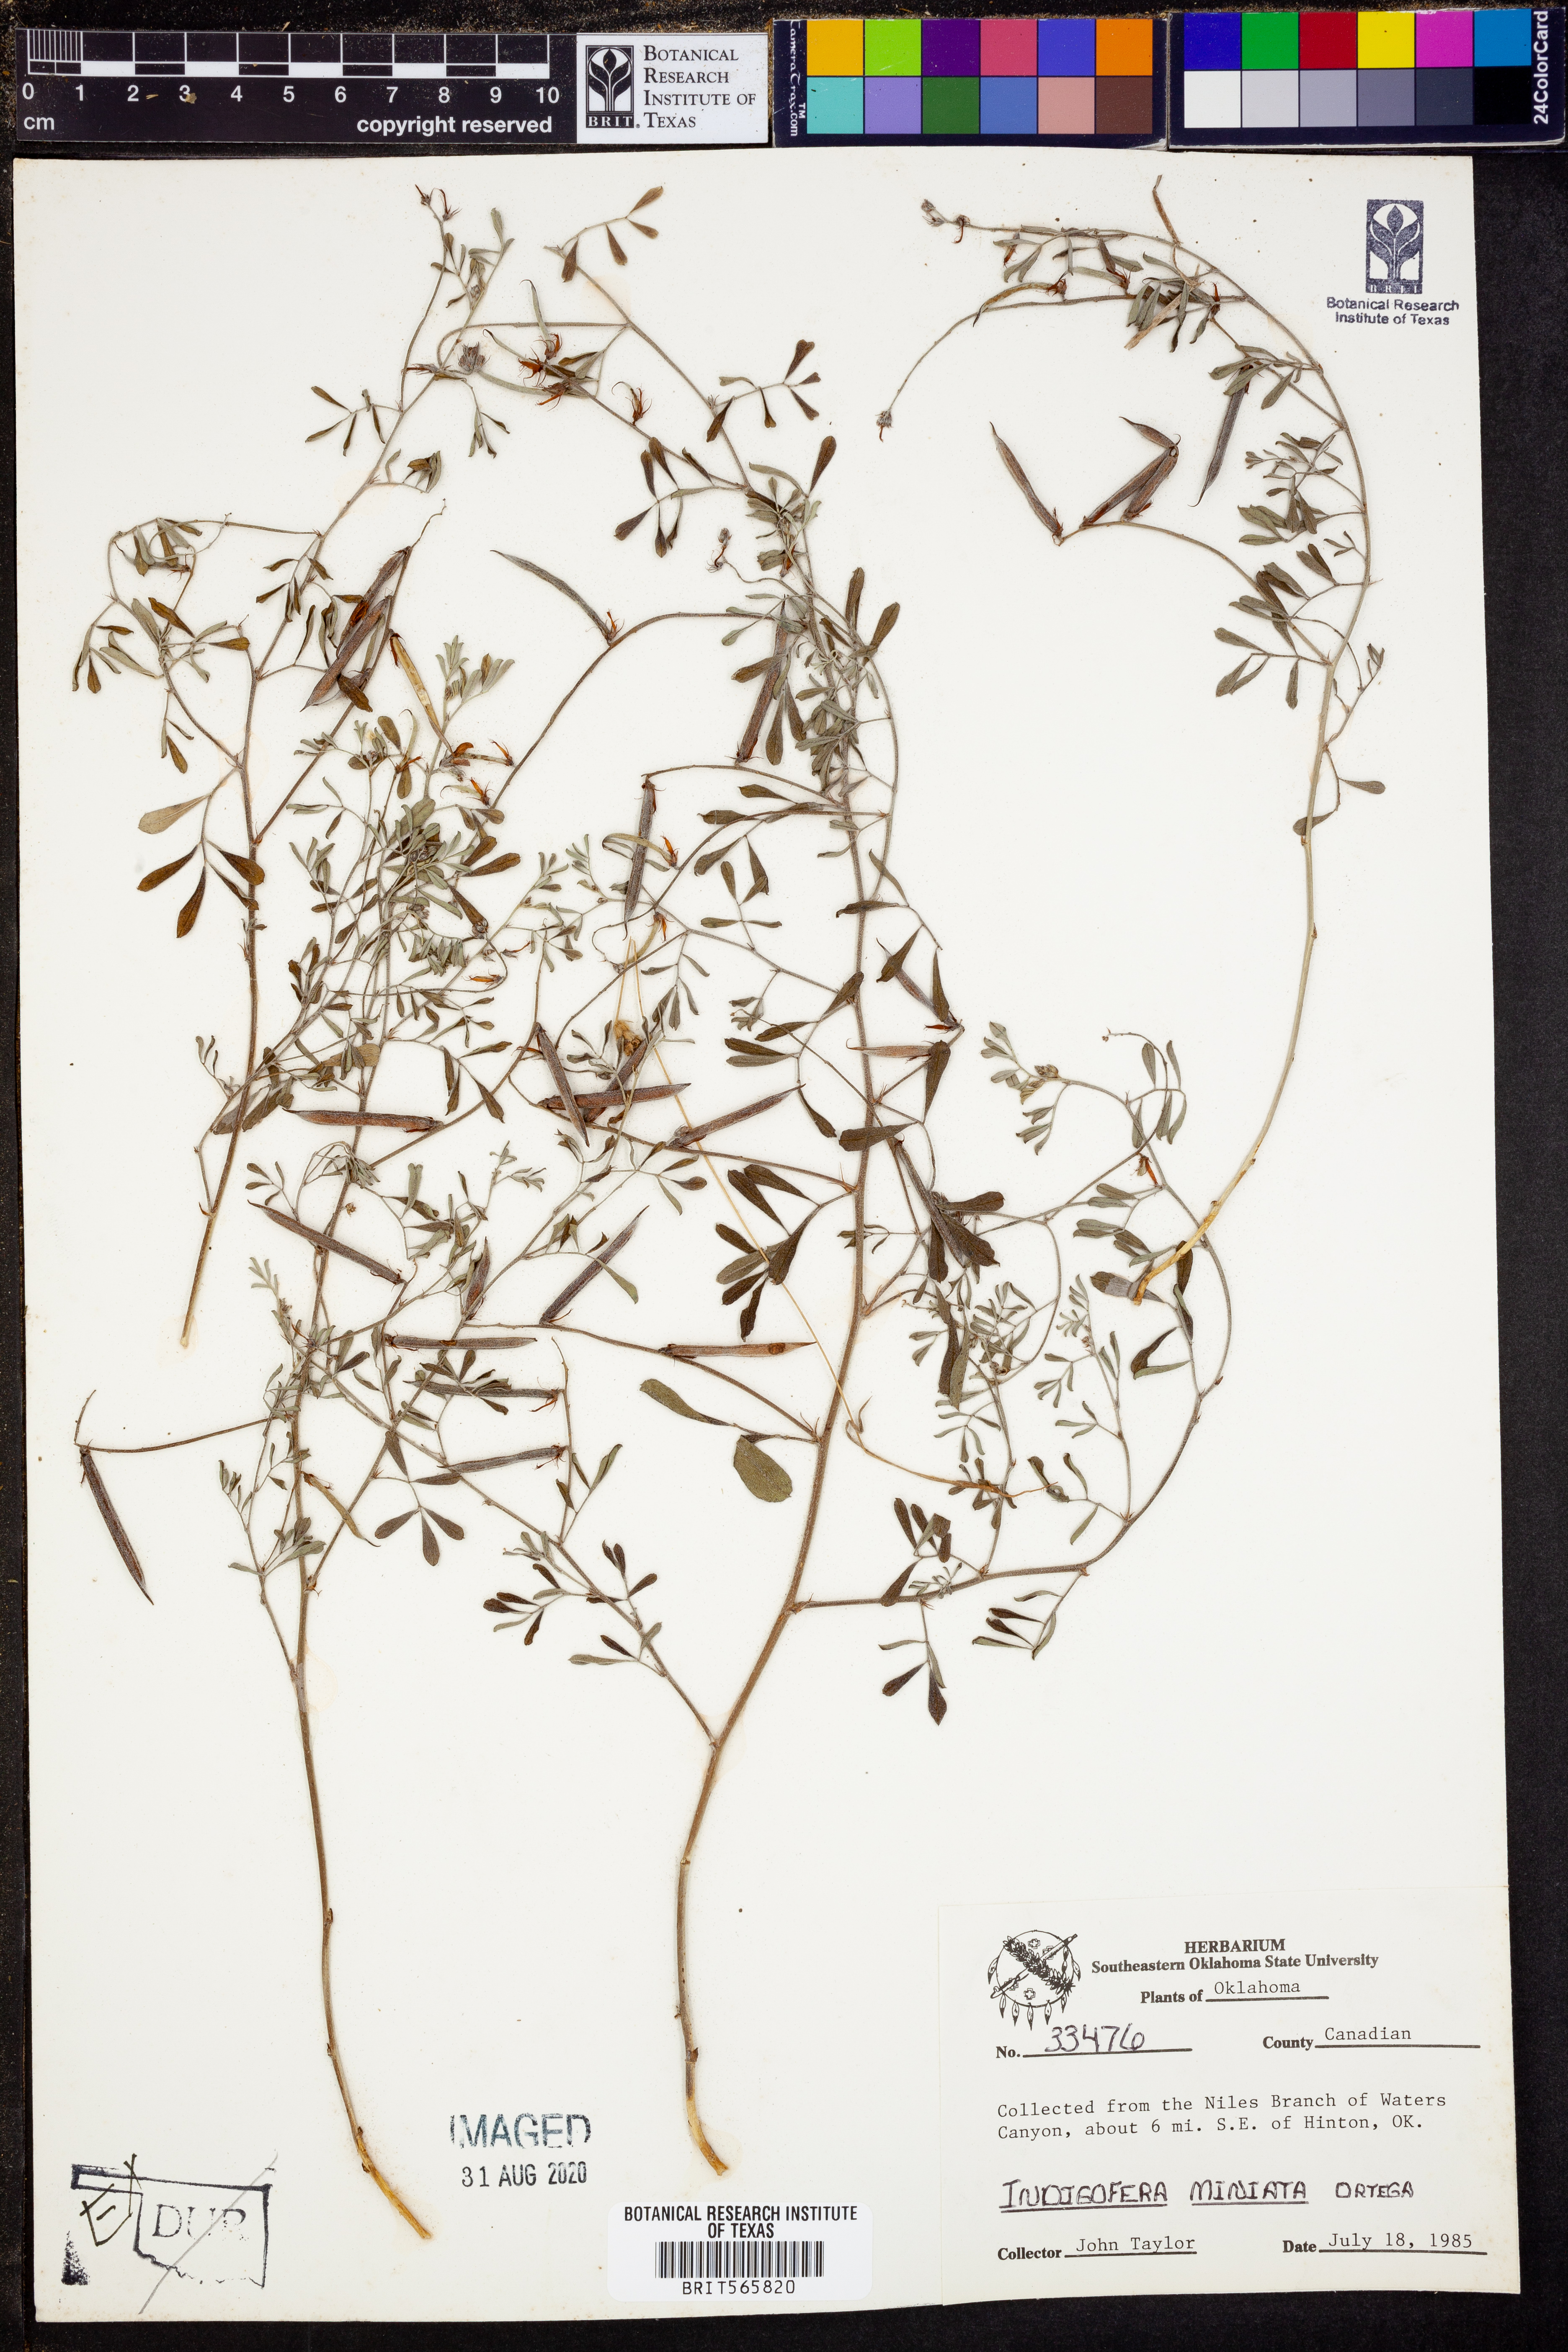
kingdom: Plantae
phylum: Tracheophyta
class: Magnoliopsida
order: Fabales
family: Fabaceae
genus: Indigofera
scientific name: Indigofera miniata
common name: Coast indigo
